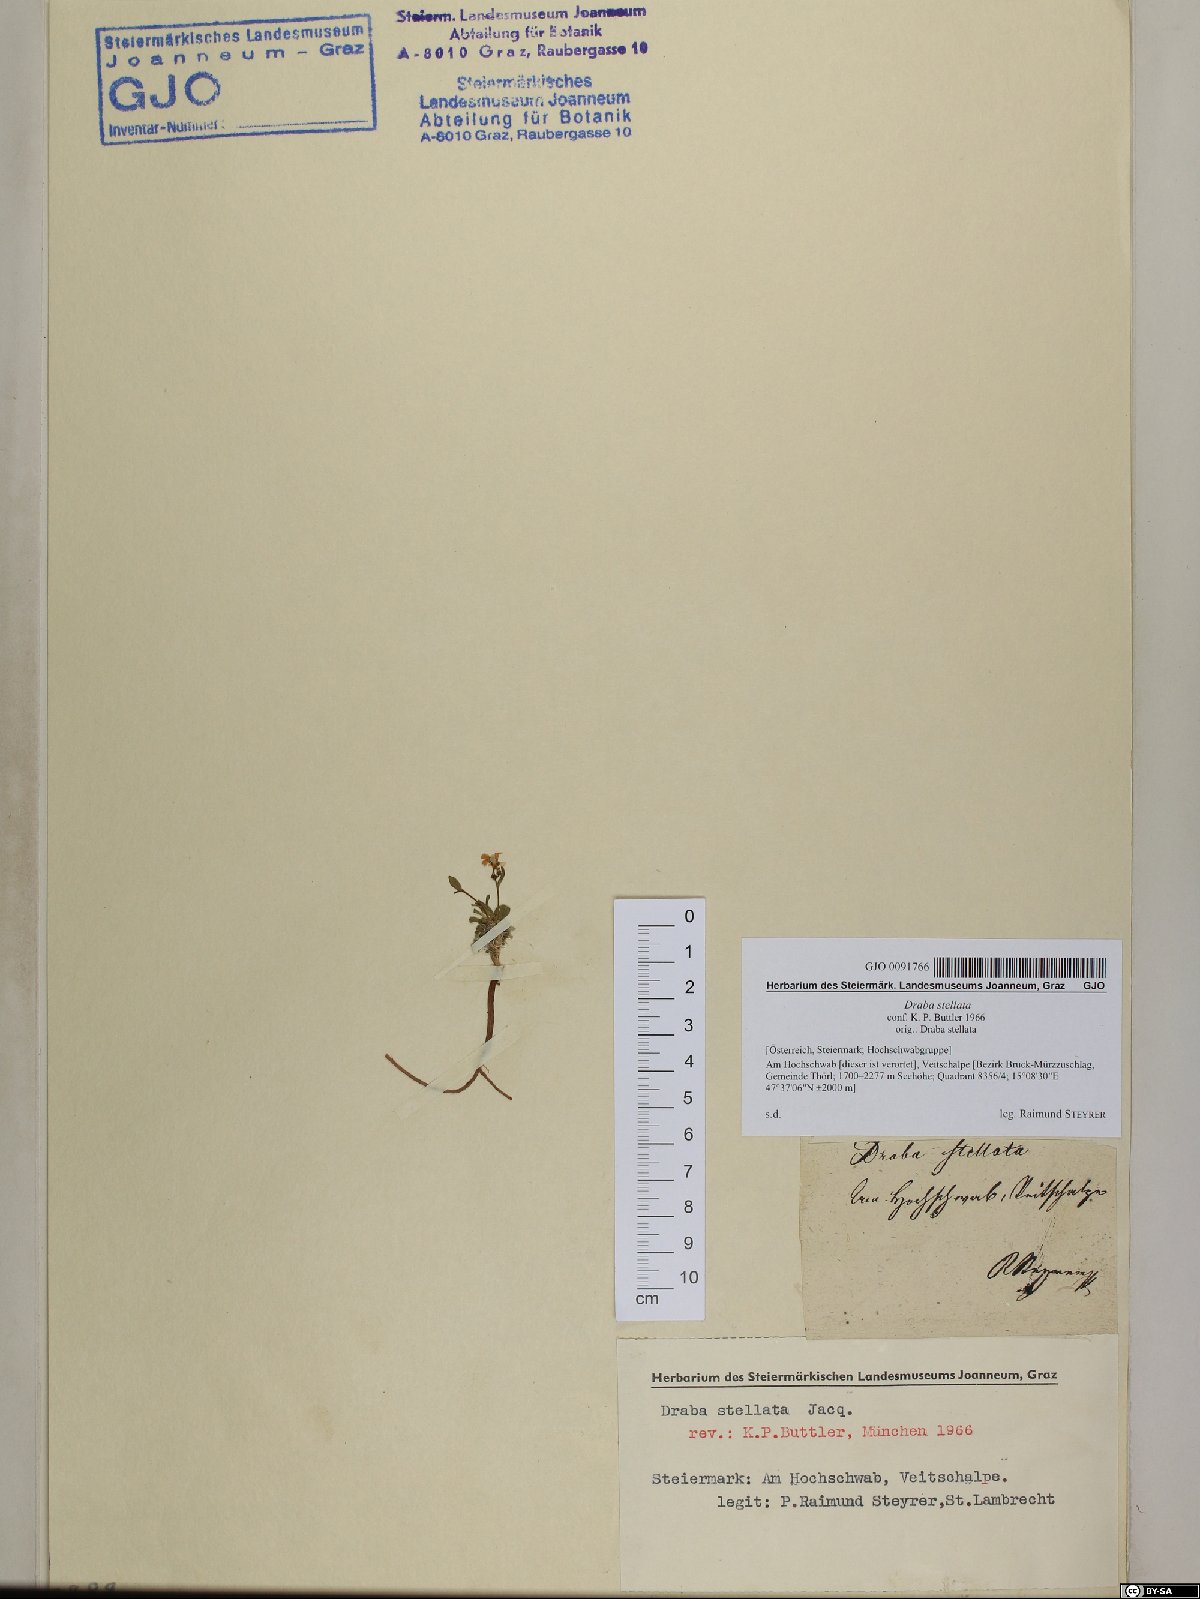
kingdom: Plantae
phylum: Tracheophyta
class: Magnoliopsida
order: Brassicales
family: Brassicaceae
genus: Draba
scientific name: Draba stellata
